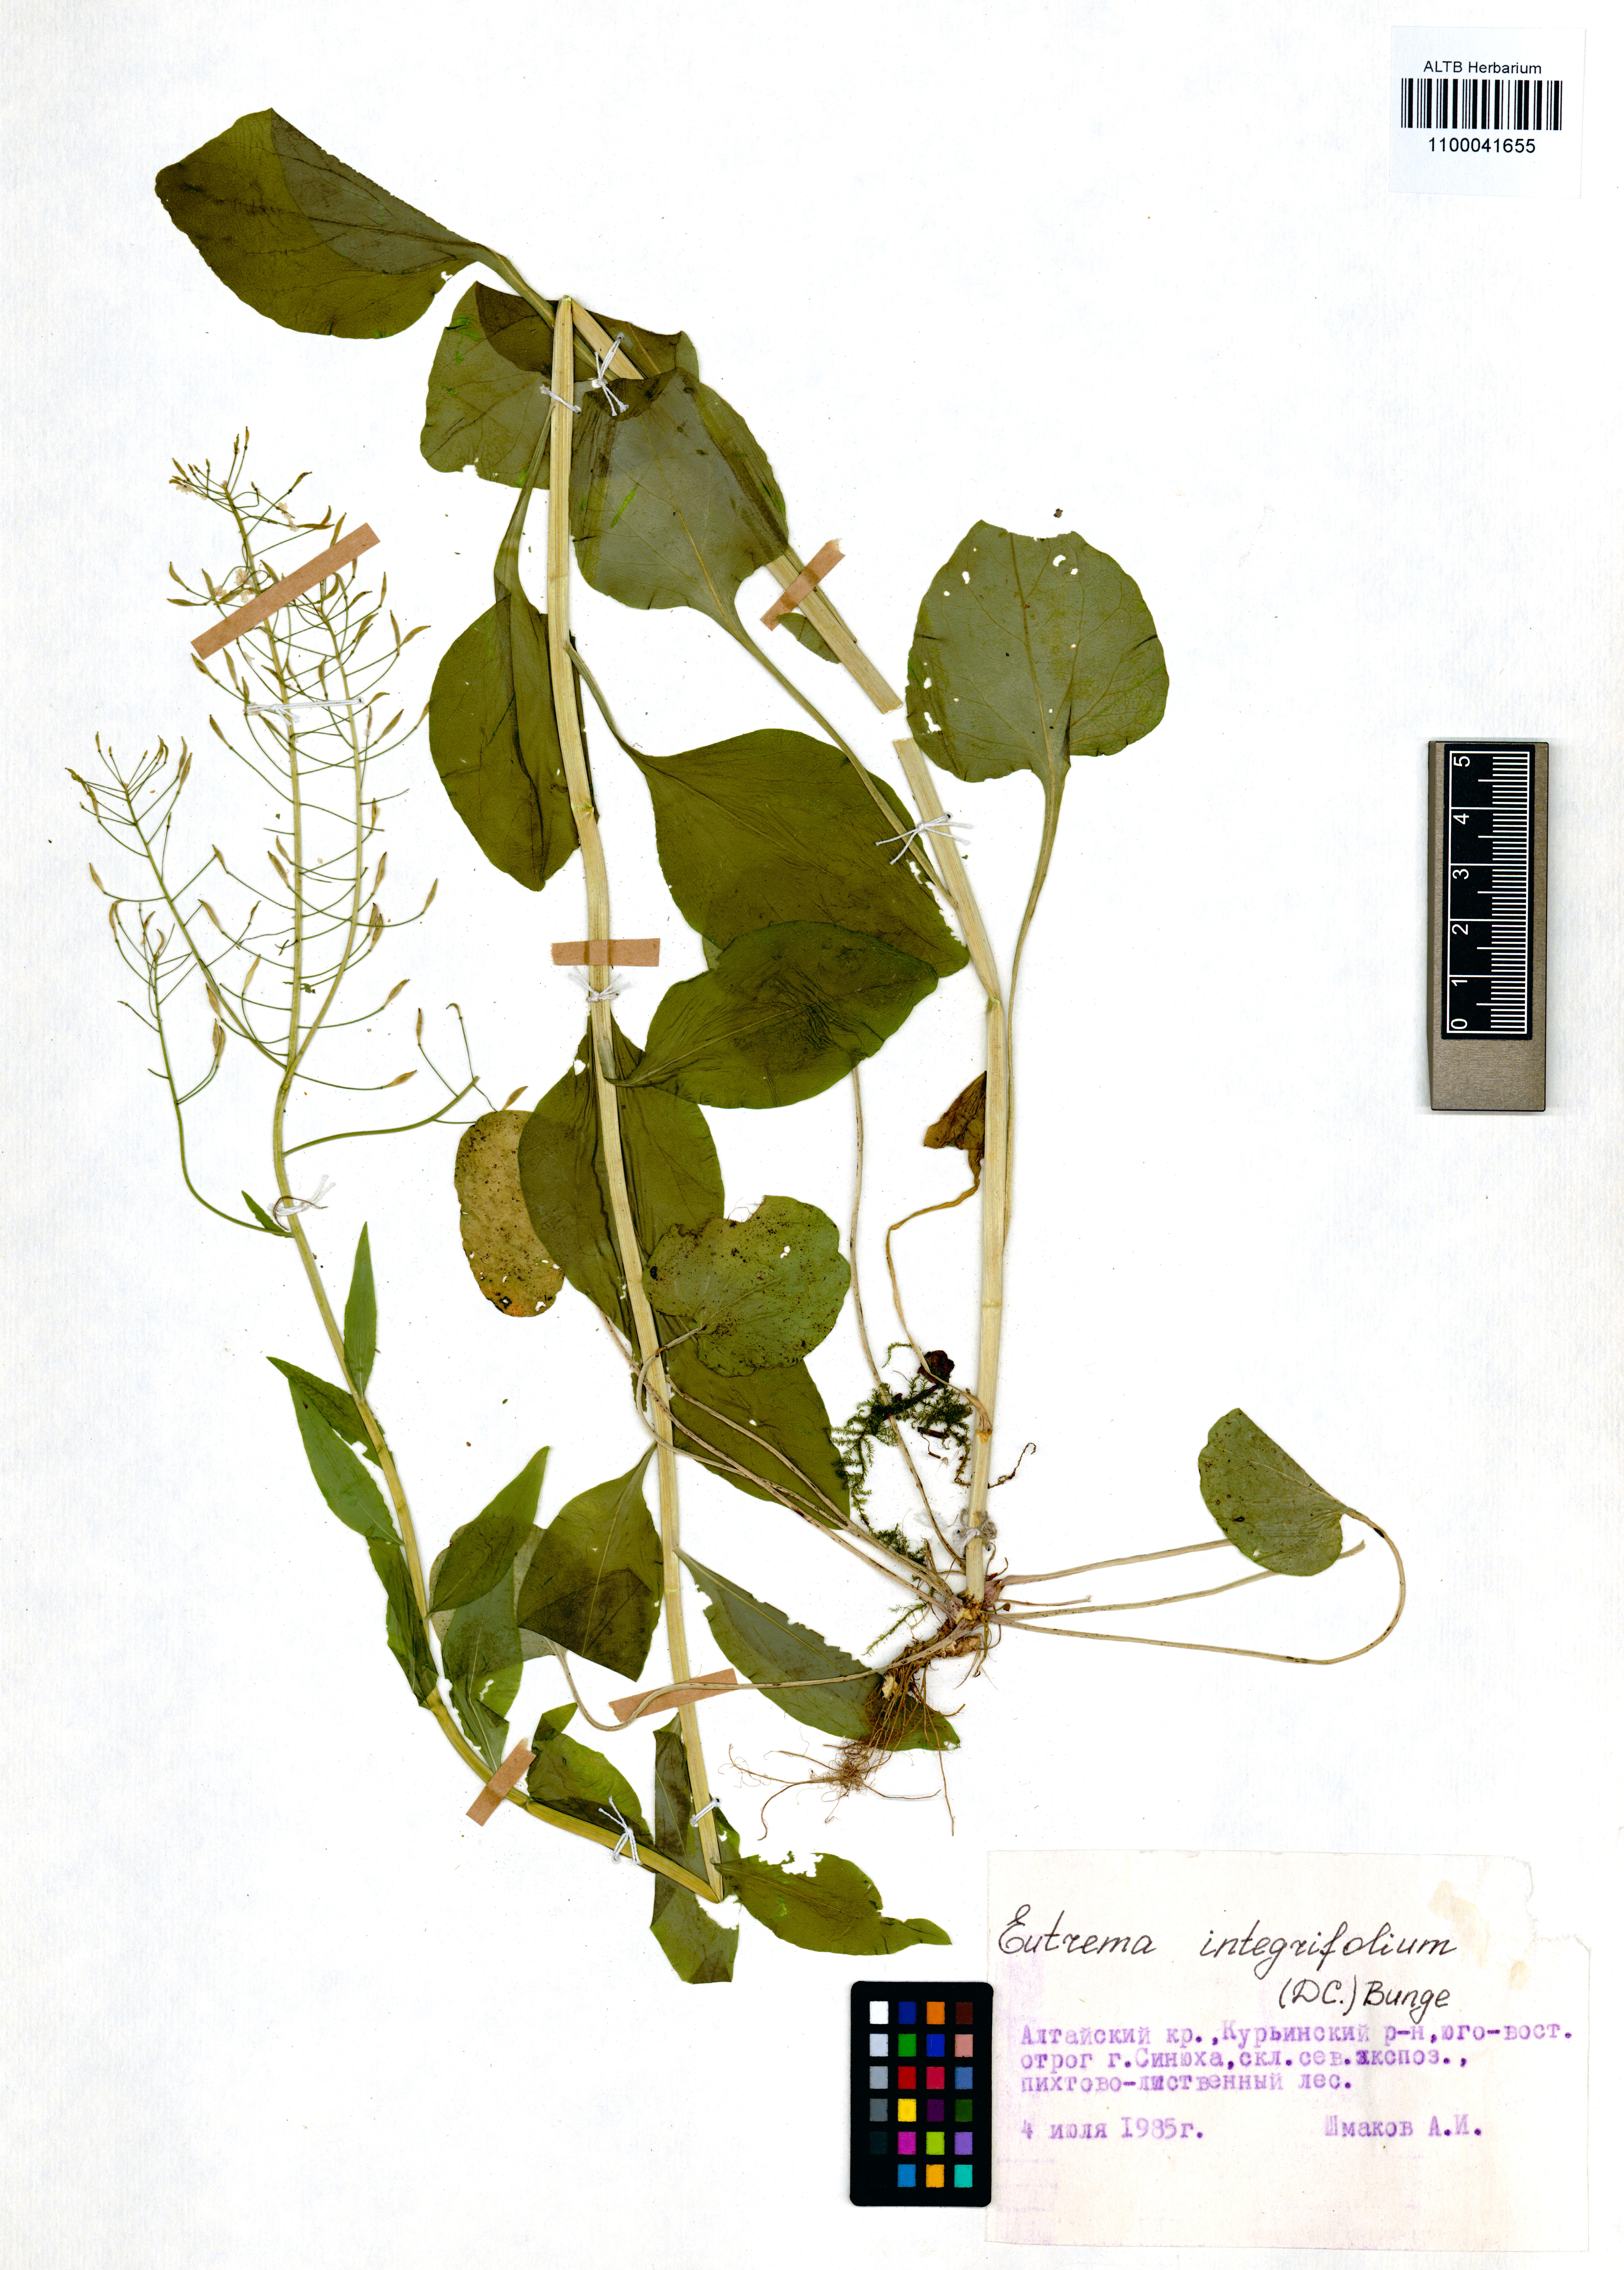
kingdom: Plantae
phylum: Tracheophyta
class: Magnoliopsida
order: Brassicales
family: Brassicaceae
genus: Eutrema
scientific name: Eutrema integrifolium
